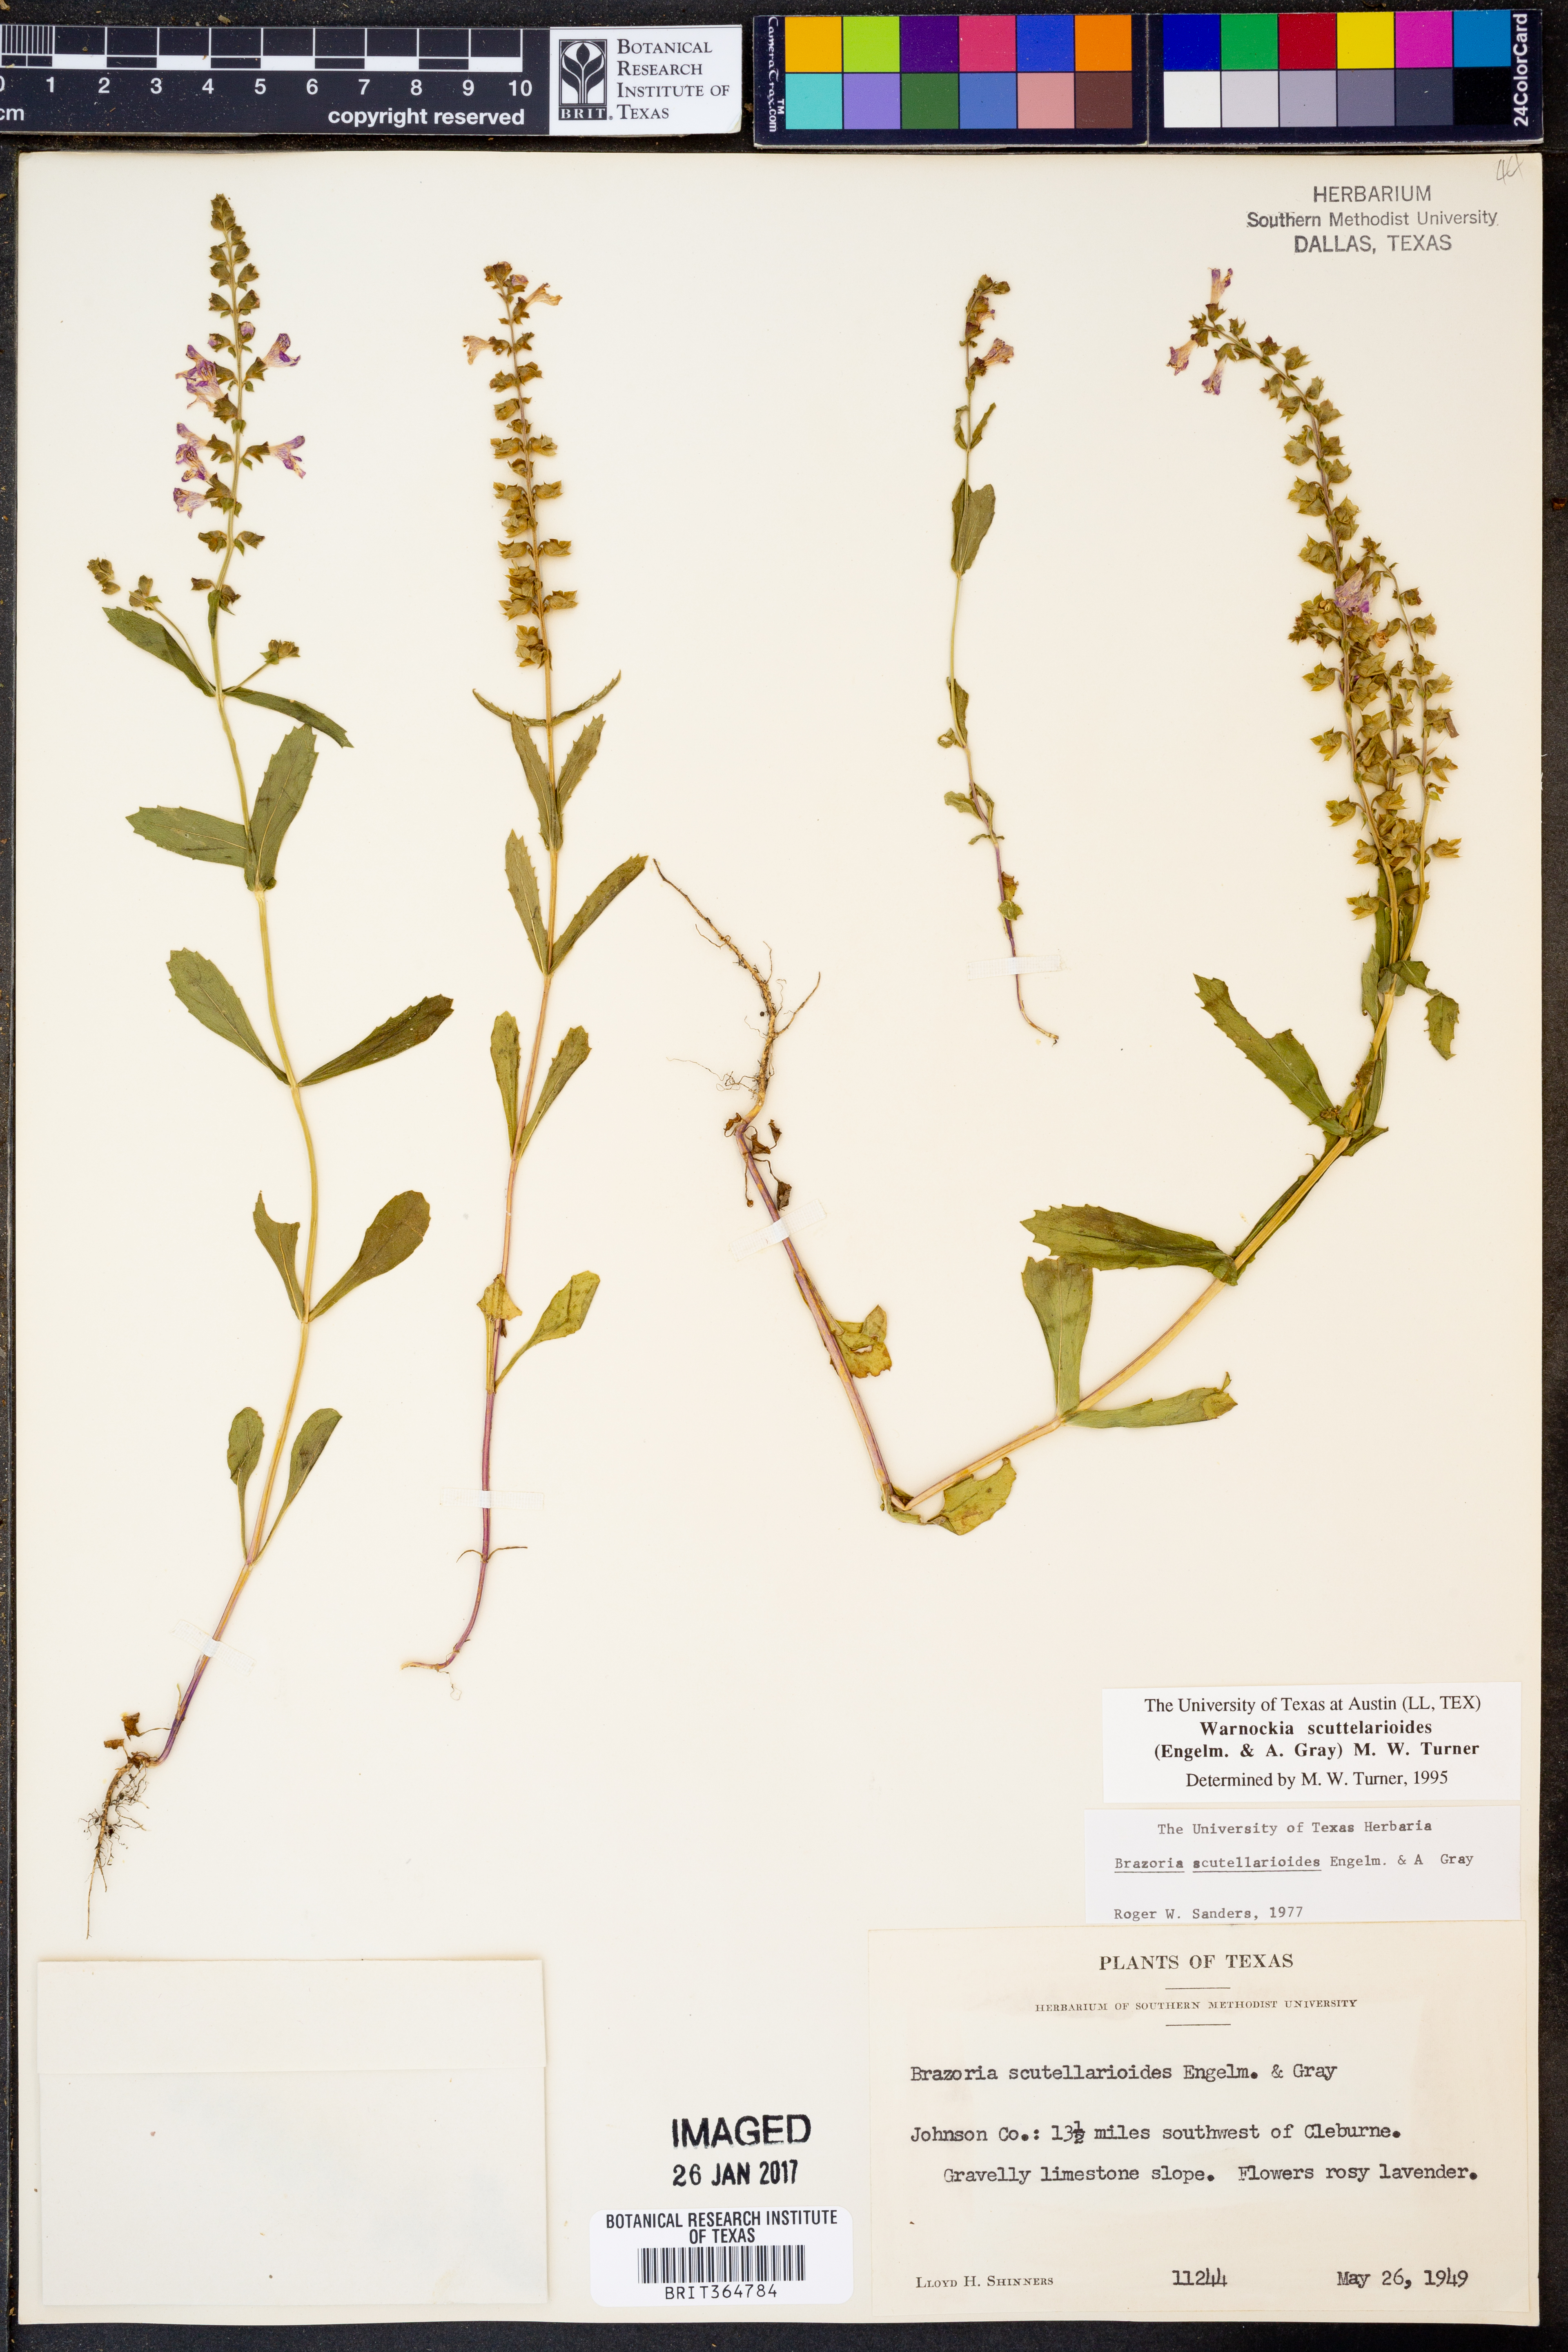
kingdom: Plantae
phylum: Tracheophyta
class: Magnoliopsida
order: Lamiales
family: Lamiaceae
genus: Warnockia
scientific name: Warnockia scutellarioides
